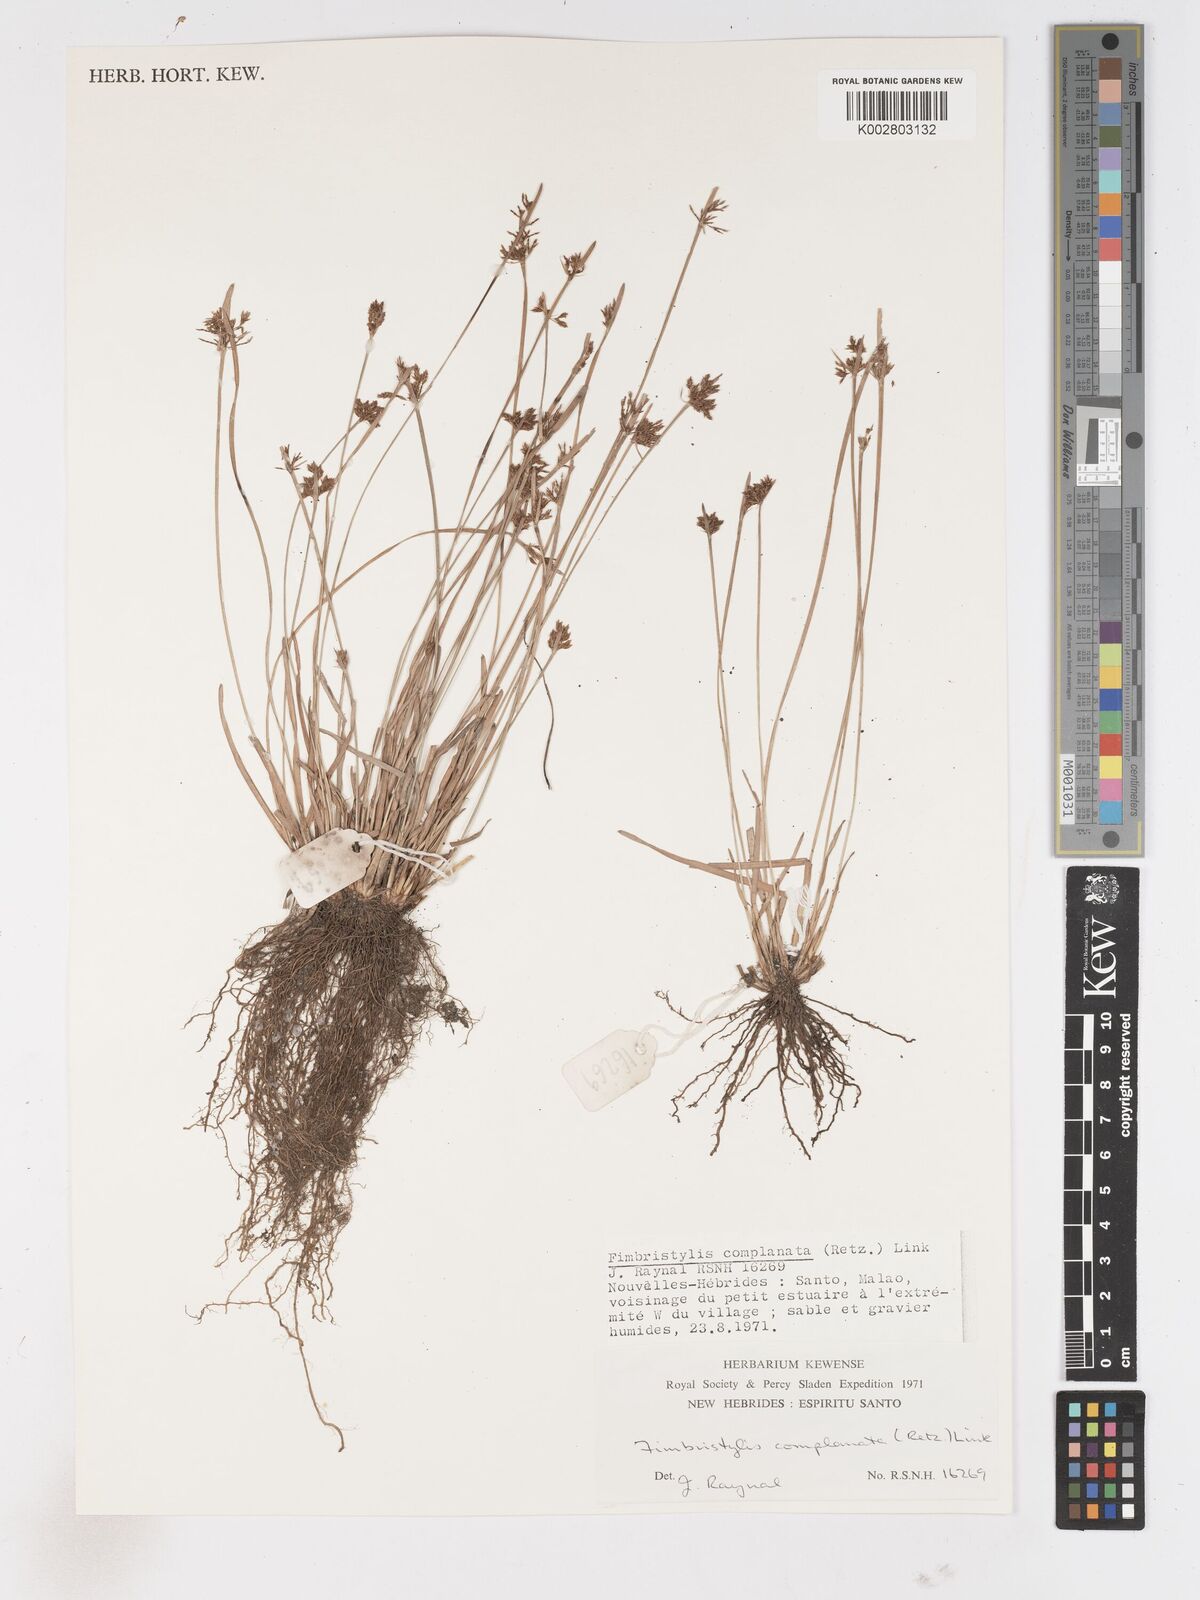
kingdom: Plantae
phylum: Tracheophyta
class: Liliopsida
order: Poales
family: Cyperaceae
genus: Fimbristylis
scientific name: Fimbristylis complanata
